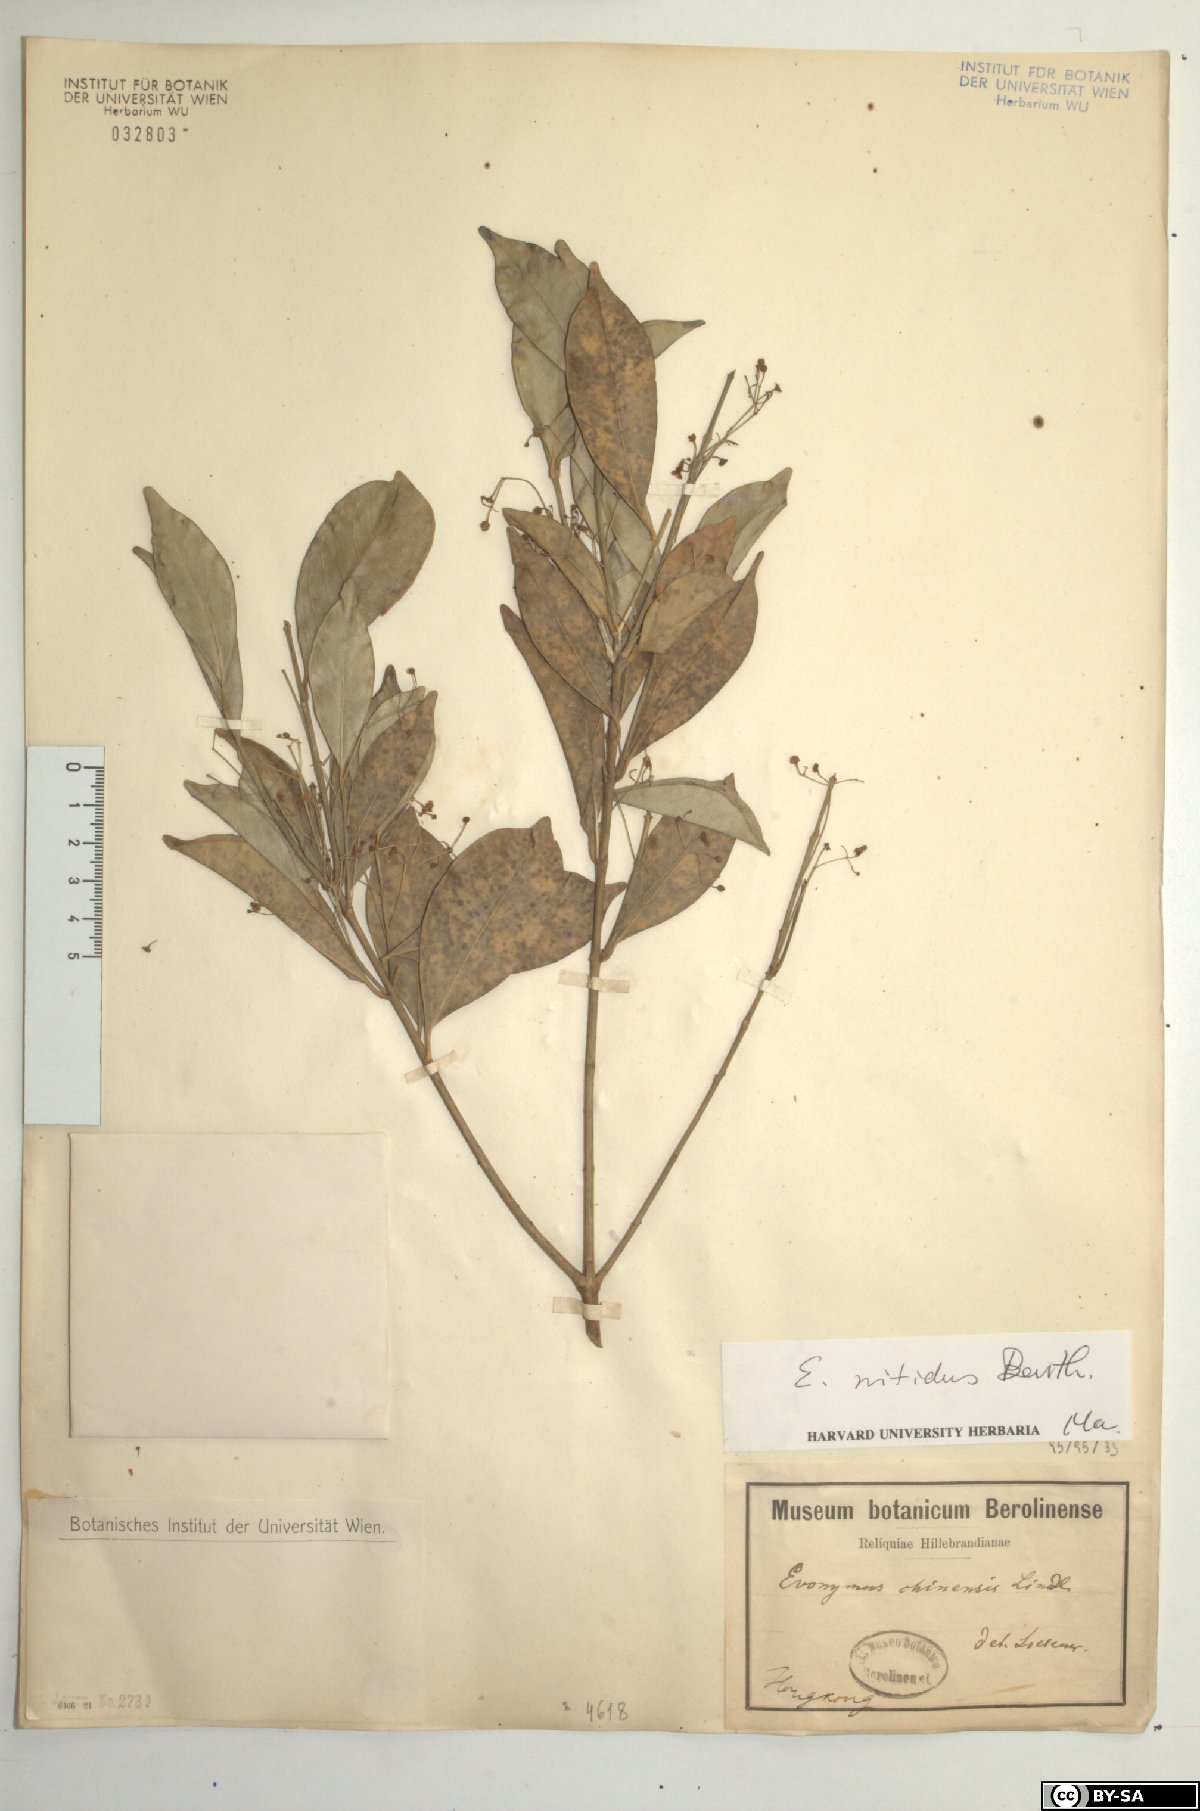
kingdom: Plantae
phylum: Tracheophyta
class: Magnoliopsida
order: Celastrales
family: Celastraceae
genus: Euonymus
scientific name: Euonymus nitidus
